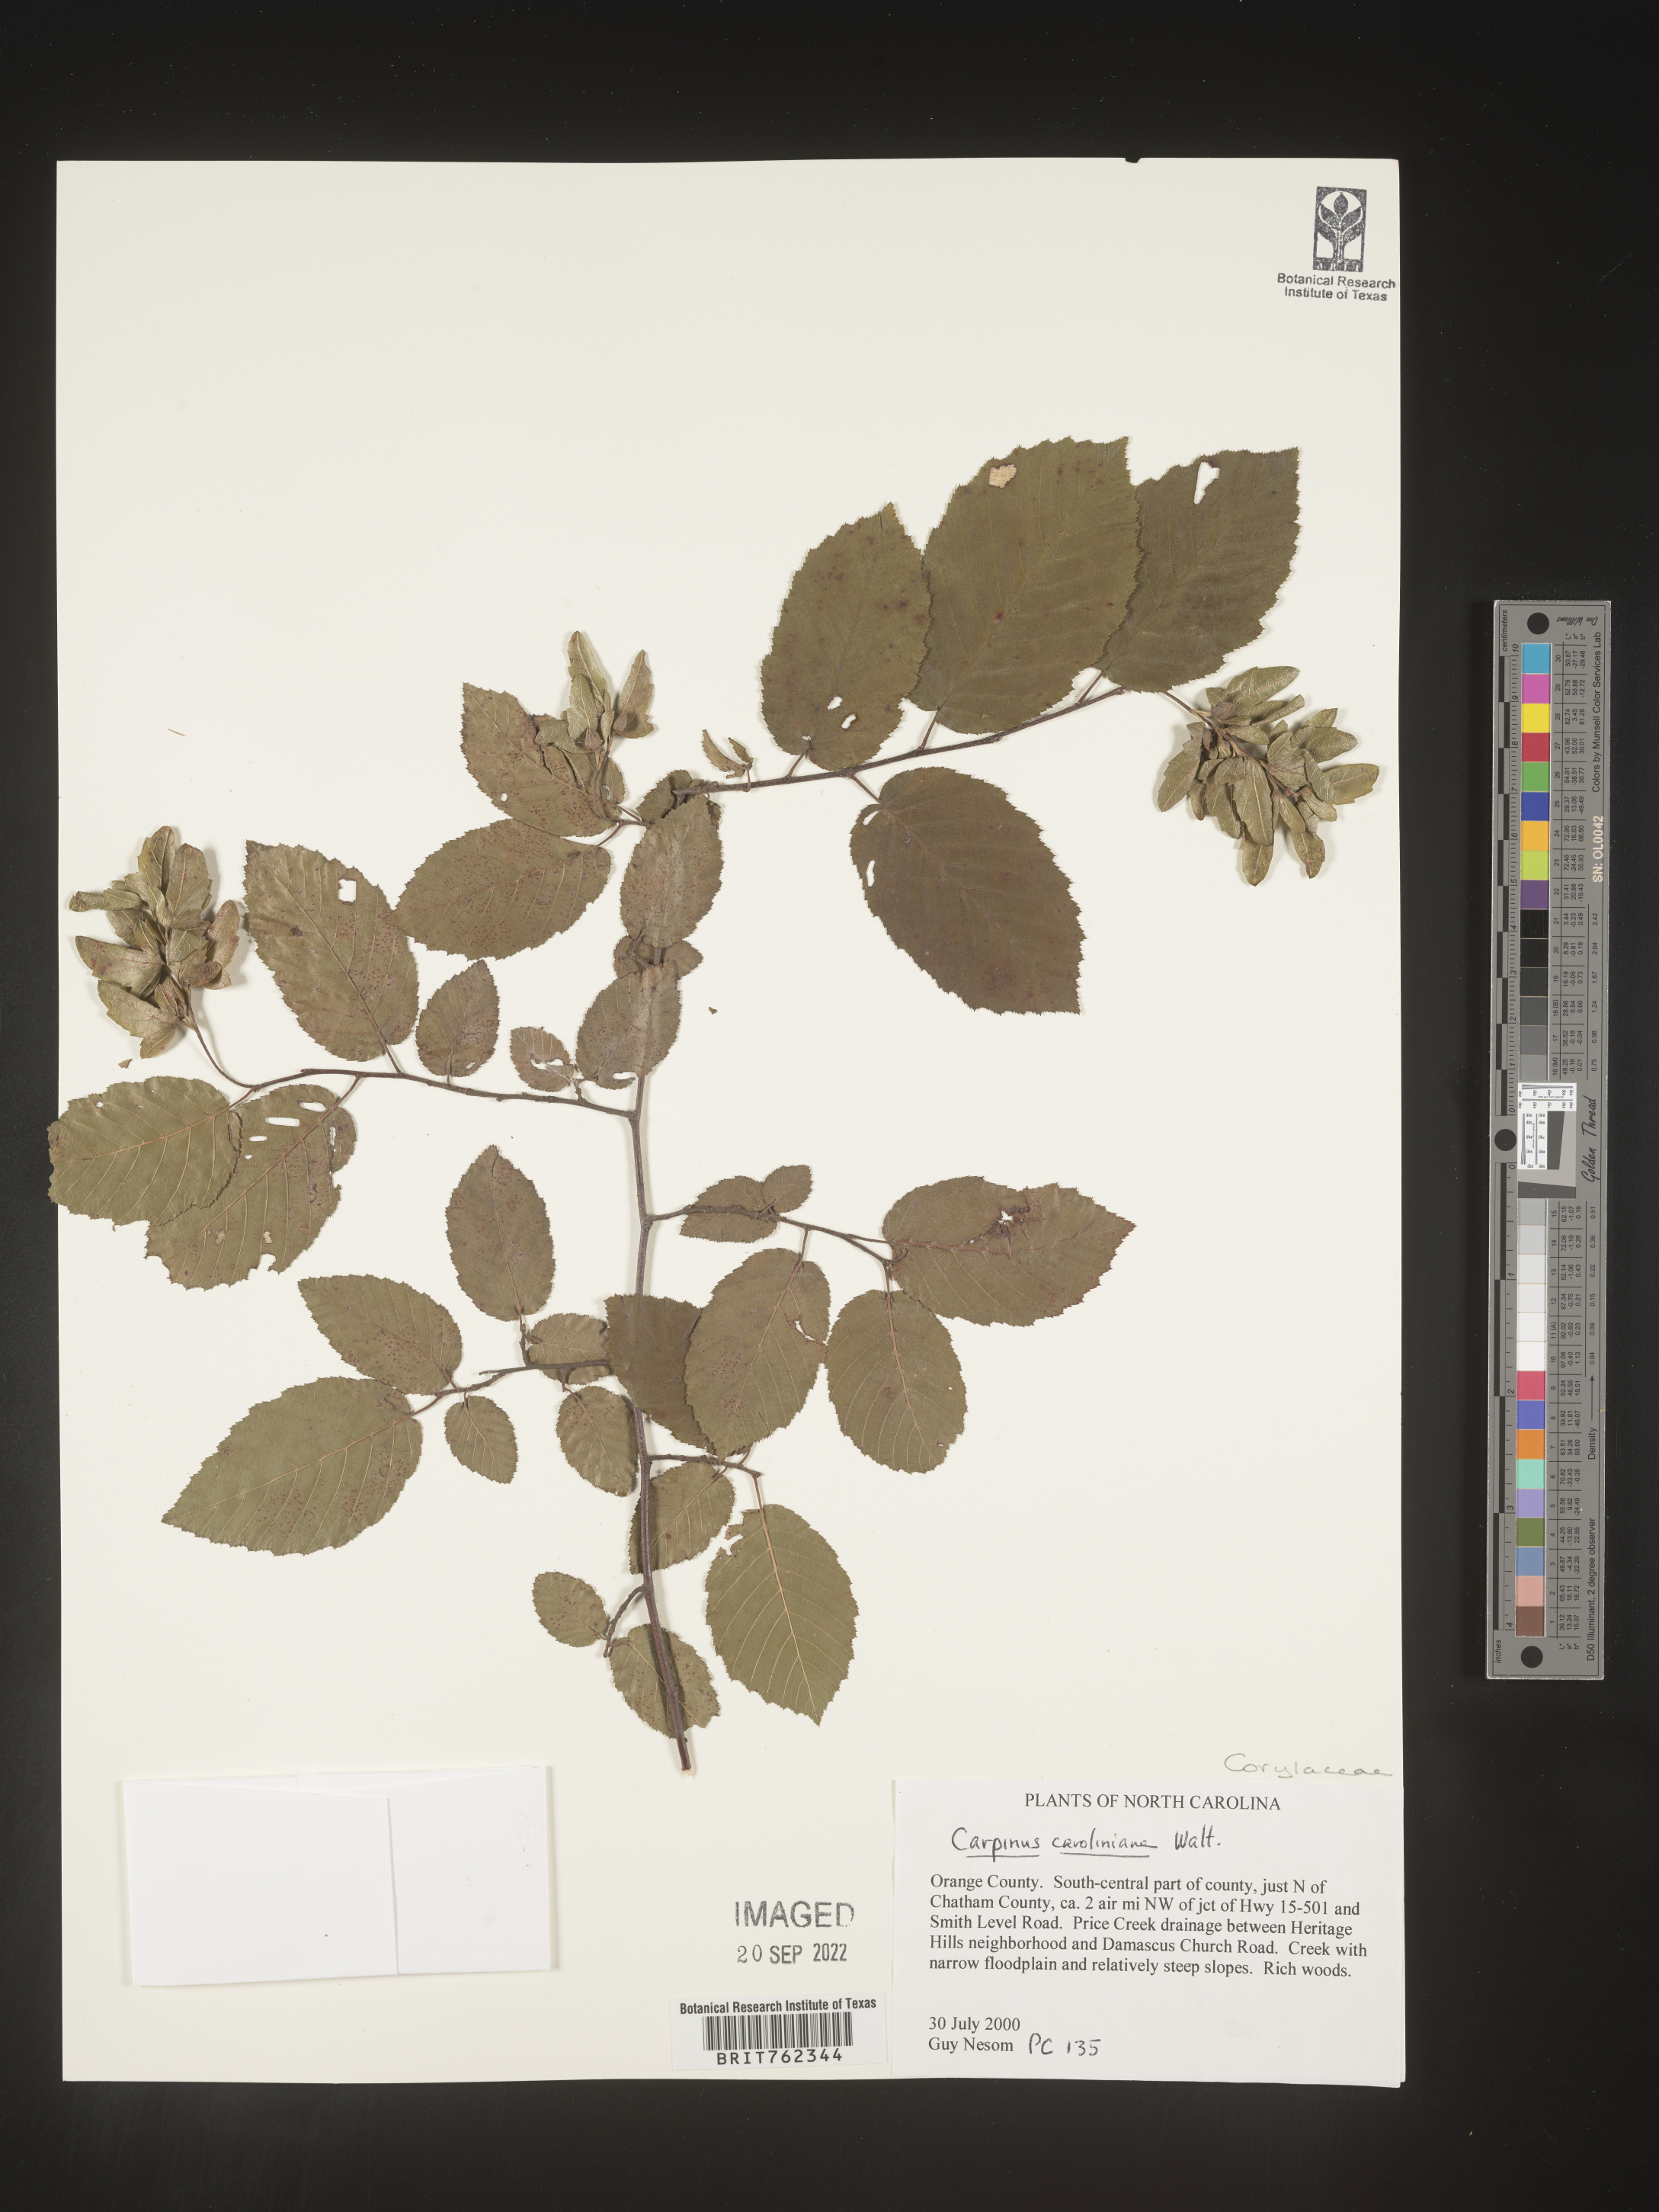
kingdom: Plantae
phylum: Tracheophyta
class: Magnoliopsida
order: Fagales
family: Betulaceae
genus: Carpinus
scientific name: Carpinus caroliniana
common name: American hornbeam
